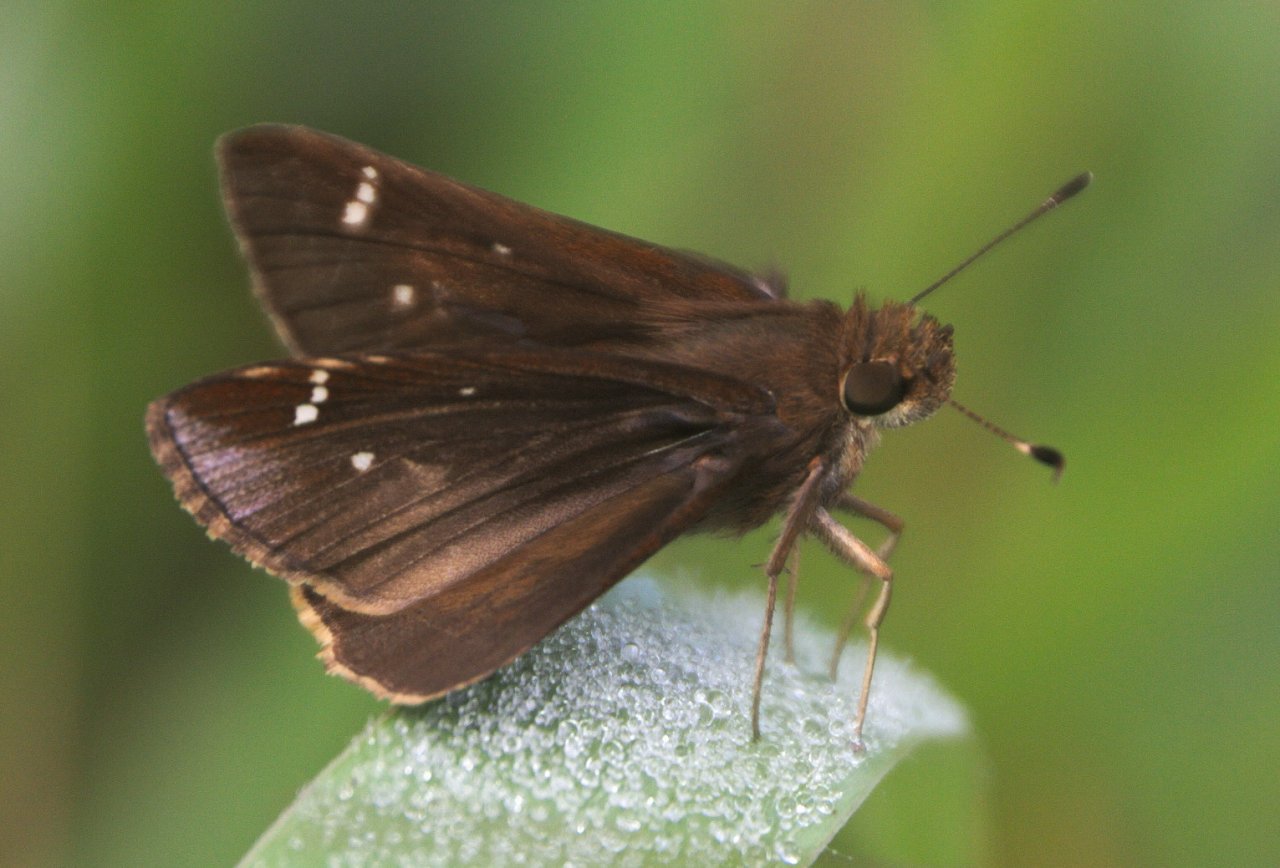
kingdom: Animalia
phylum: Arthropoda
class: Insecta
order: Lepidoptera
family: Hesperiidae
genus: Lerema
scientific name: Lerema accius
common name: Clouded Skipper
